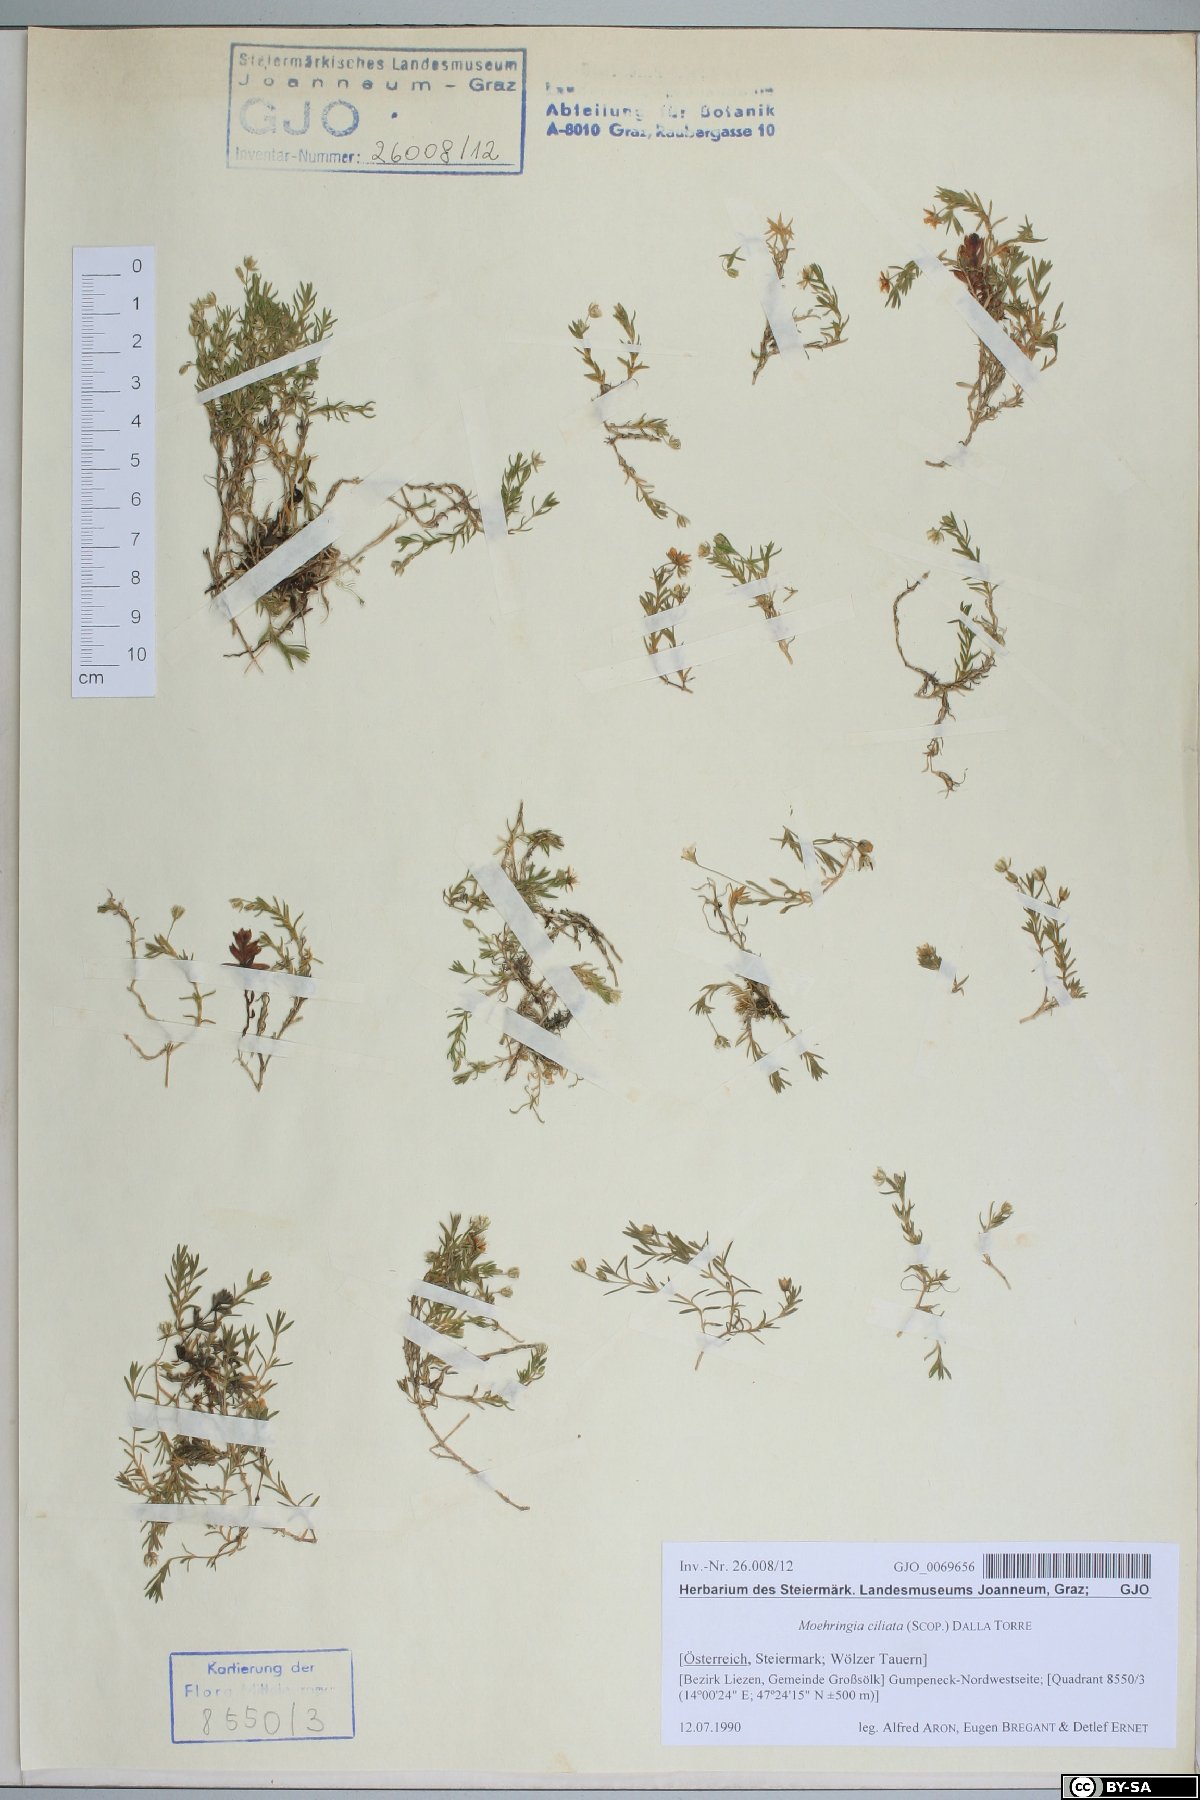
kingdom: Plantae
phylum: Tracheophyta
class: Magnoliopsida
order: Caryophyllales
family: Caryophyllaceae
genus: Moehringia
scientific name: Moehringia ciliata
